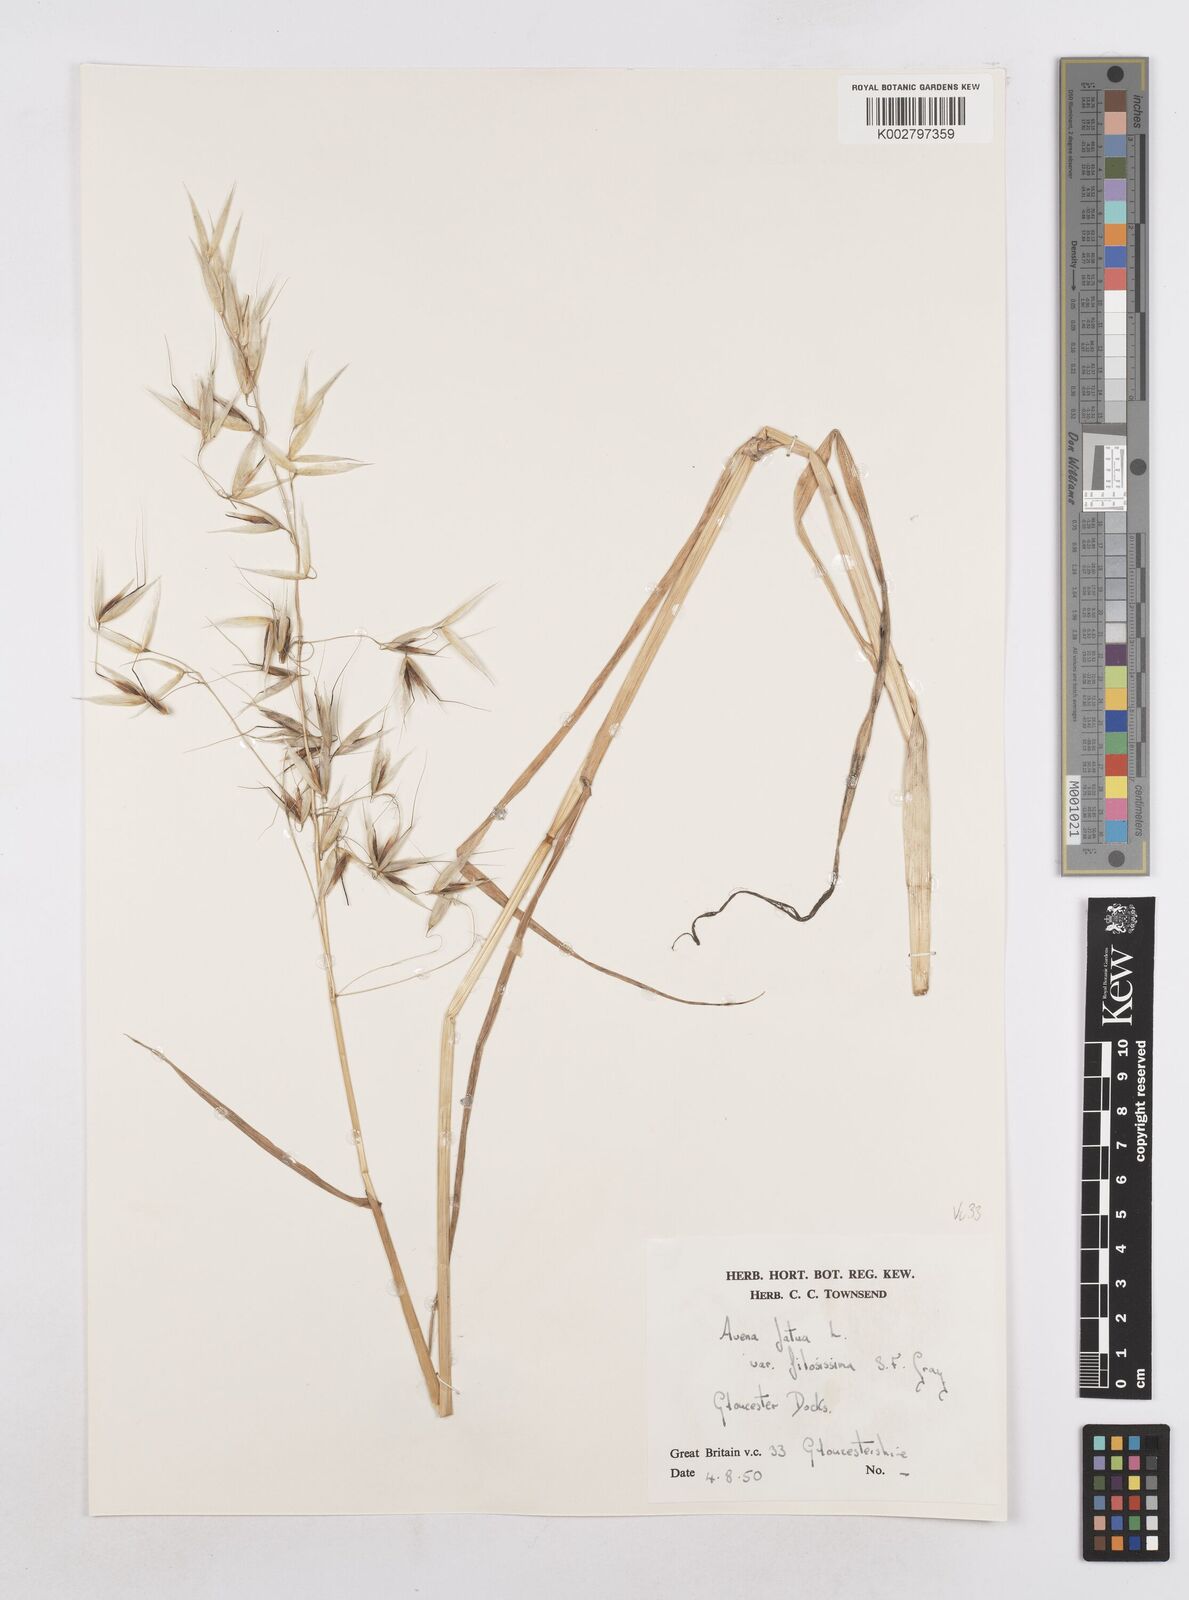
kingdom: Plantae
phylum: Tracheophyta
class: Liliopsida
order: Poales
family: Poaceae
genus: Avena
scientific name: Avena fatua
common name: Wild oat
